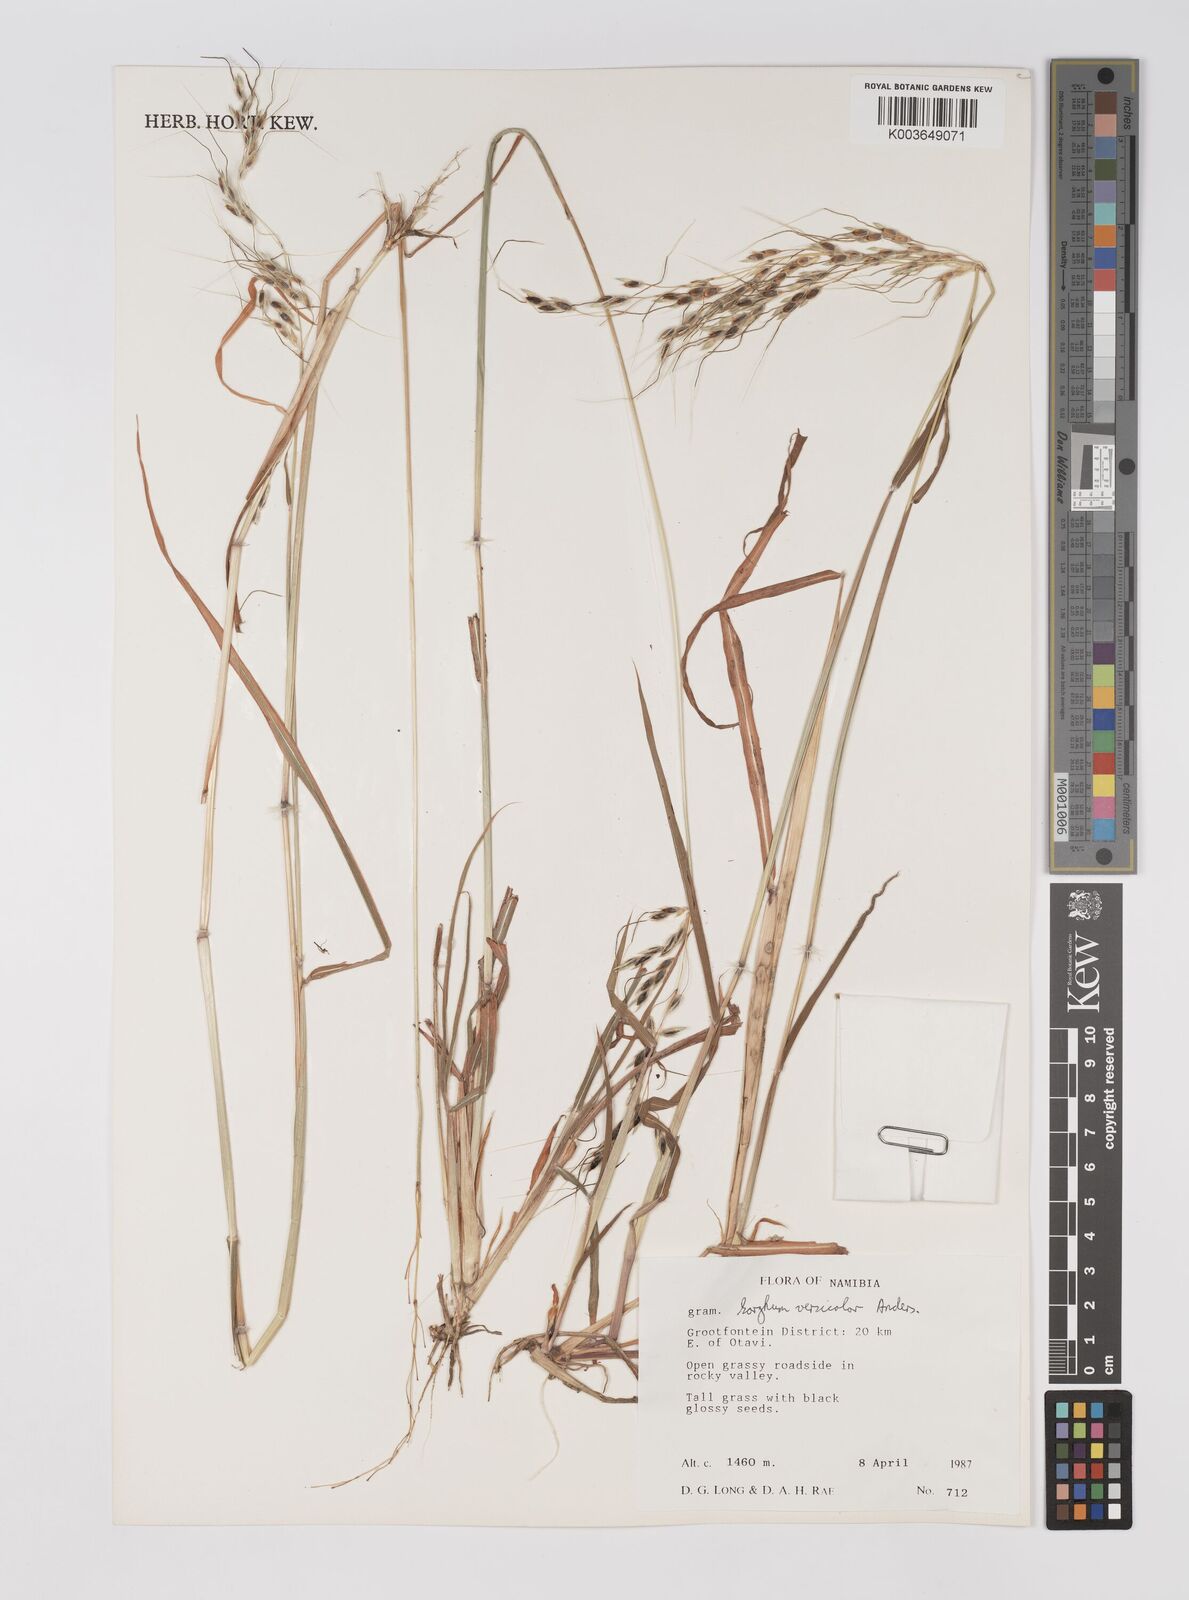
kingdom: Plantae
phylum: Tracheophyta
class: Liliopsida
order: Poales
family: Poaceae
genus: Sarga
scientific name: Sarga versicolor
